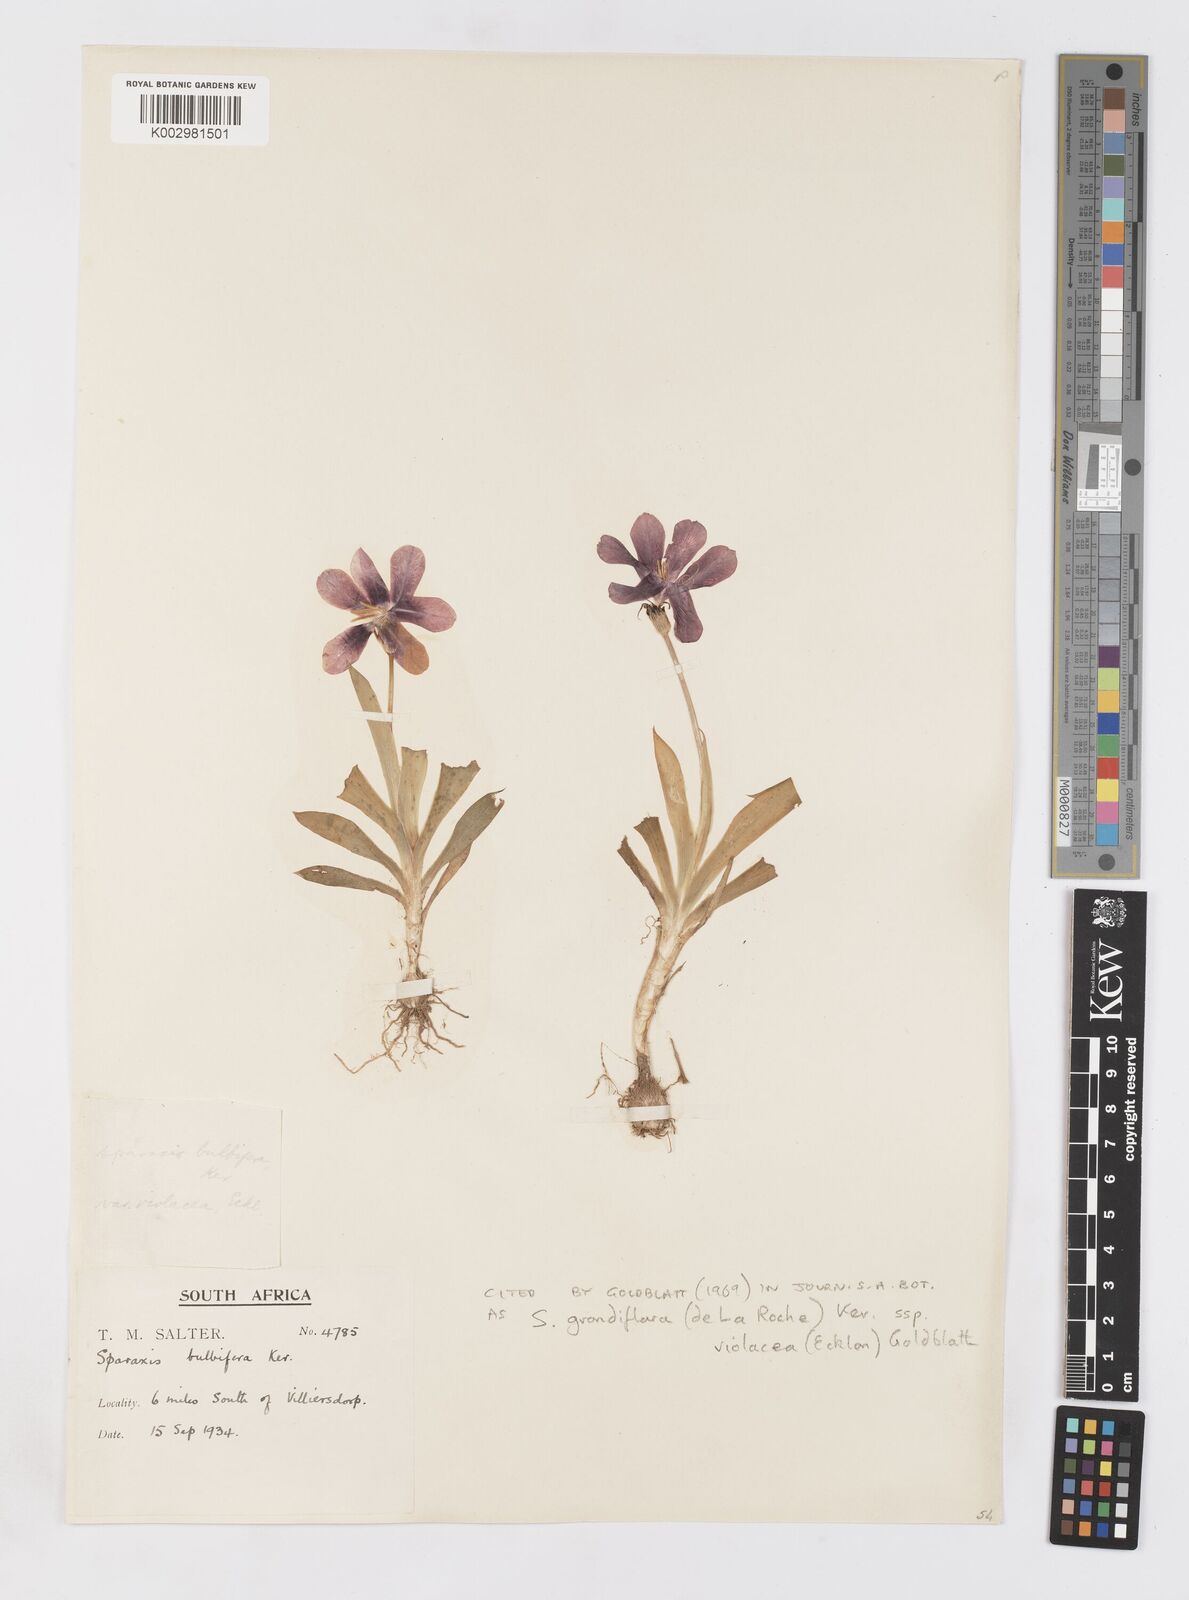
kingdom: Plantae
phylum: Tracheophyta
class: Liliopsida
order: Asparagales
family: Iridaceae
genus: Sparaxis
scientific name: Sparaxis grandiflora
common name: Plain harlequin-flower
